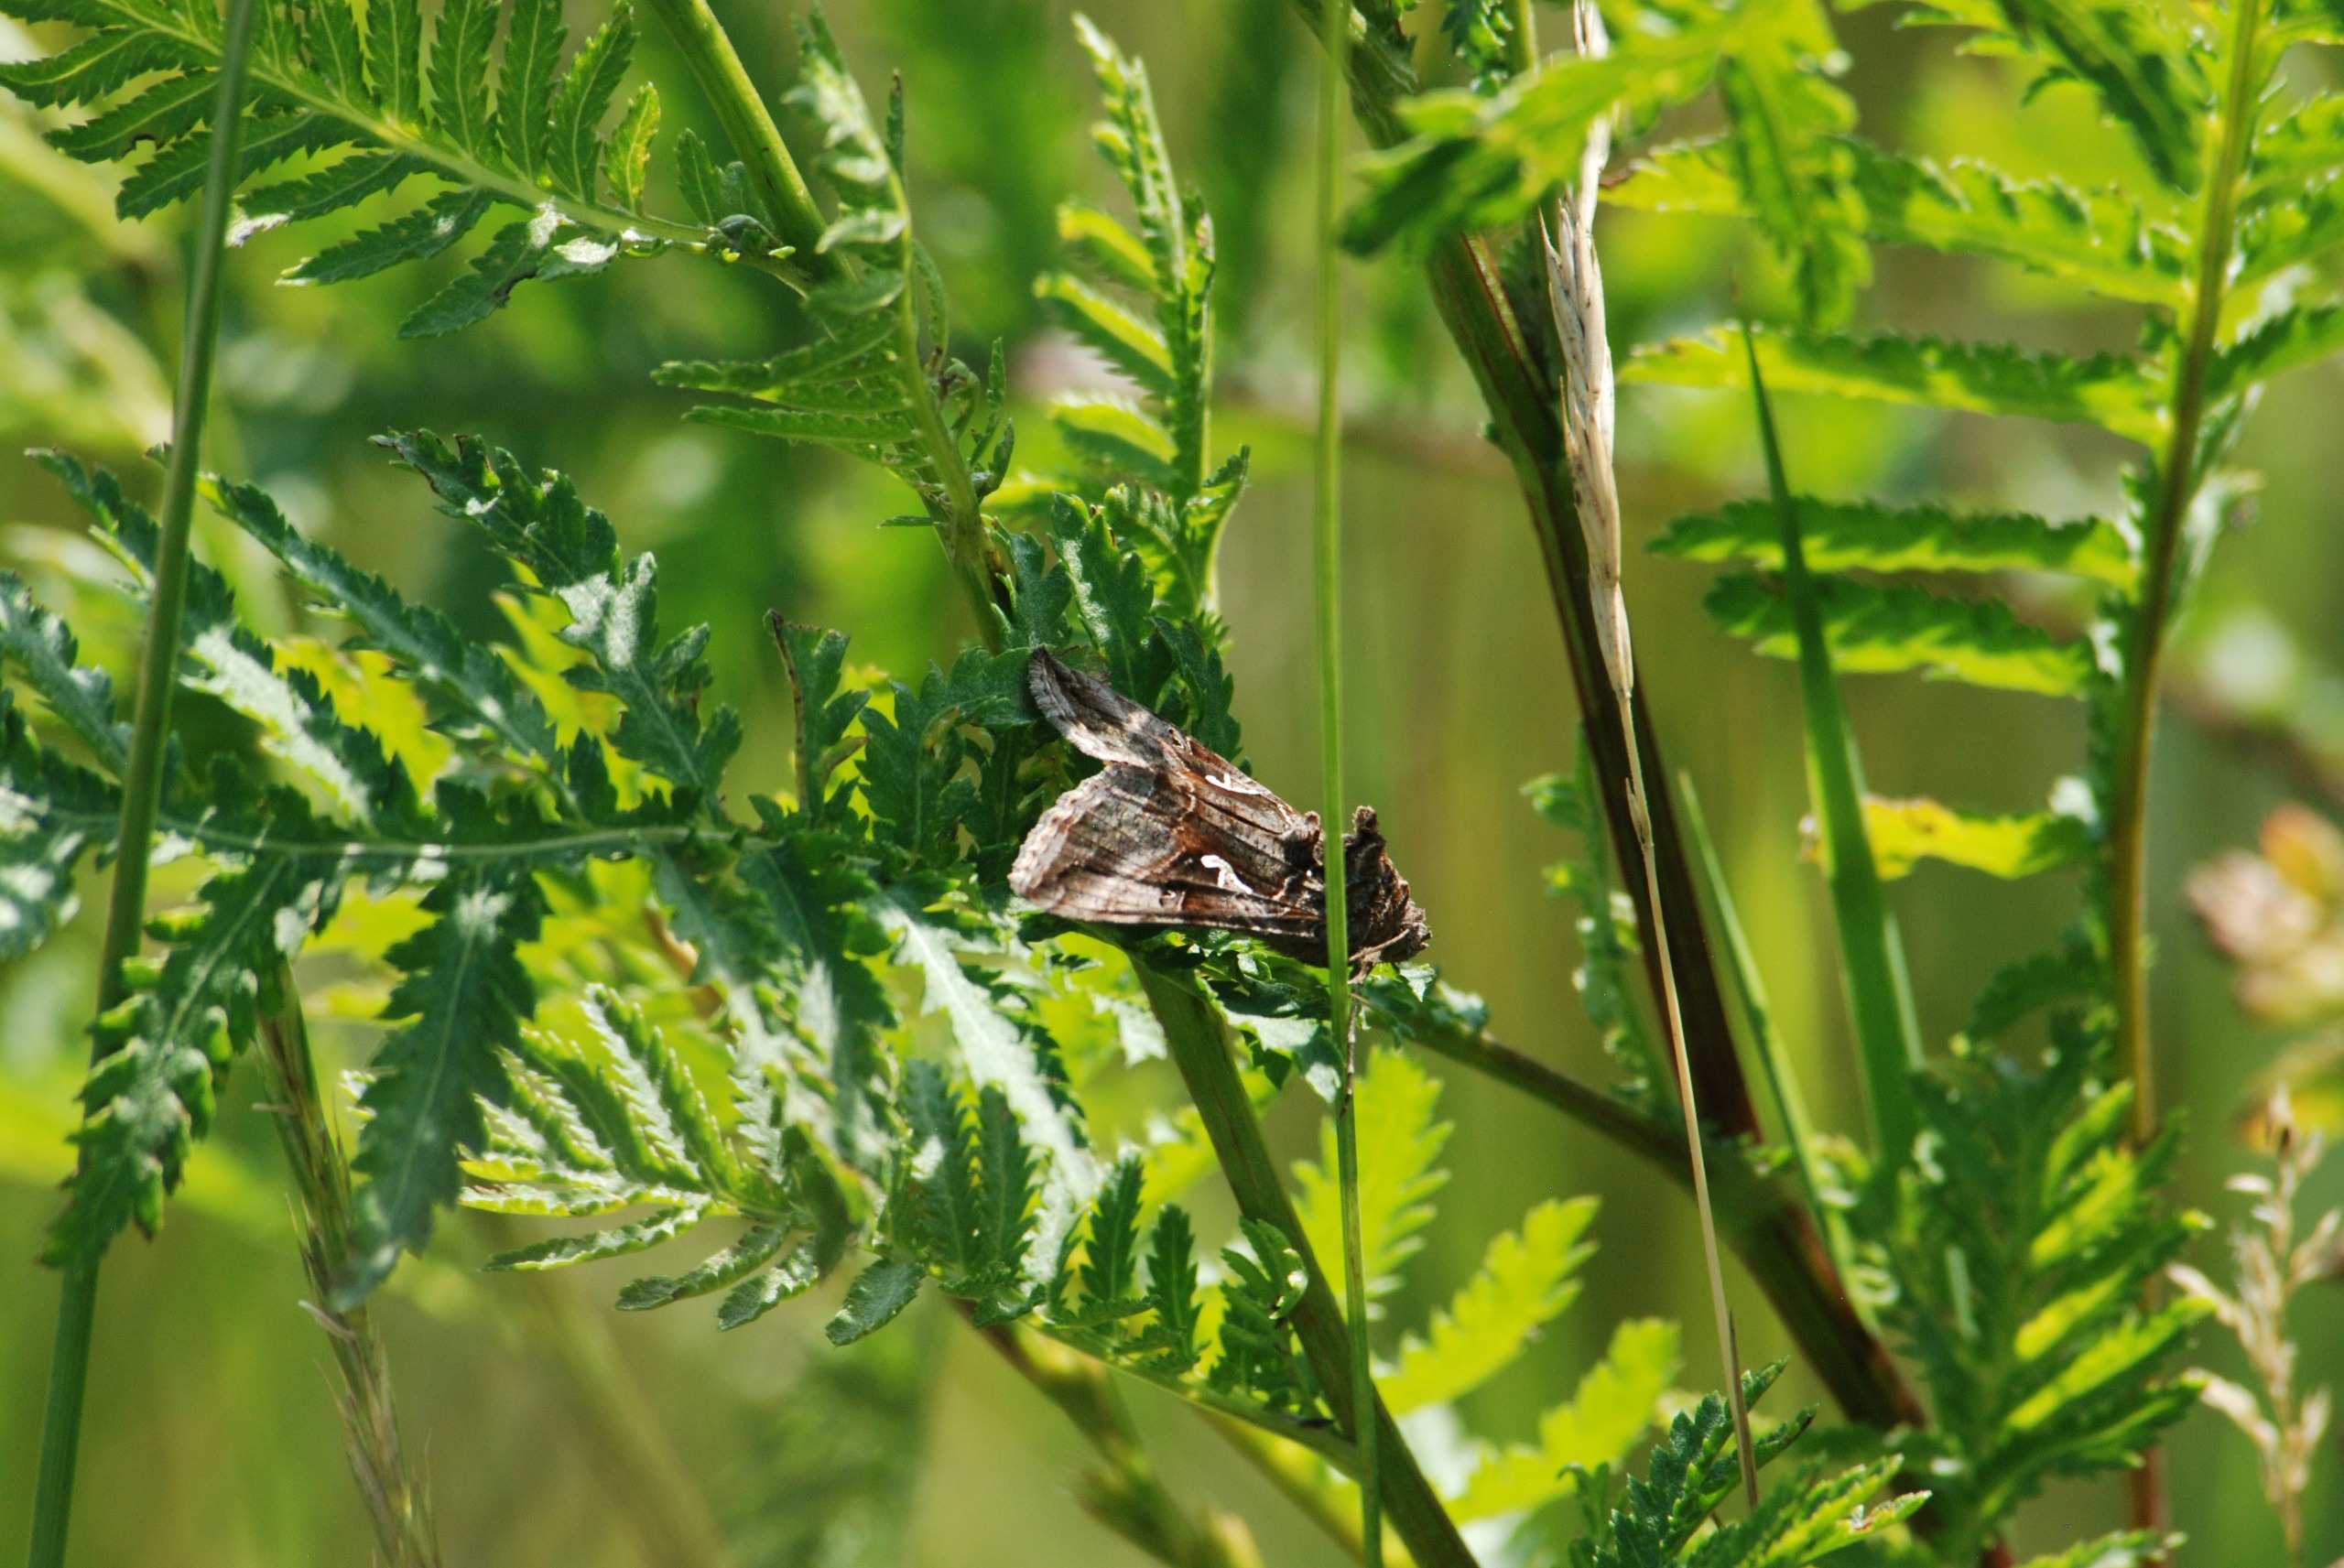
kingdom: Animalia
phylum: Arthropoda
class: Insecta
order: Lepidoptera
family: Noctuidae
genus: Autographa
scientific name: Autographa gamma
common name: Gammaugle
